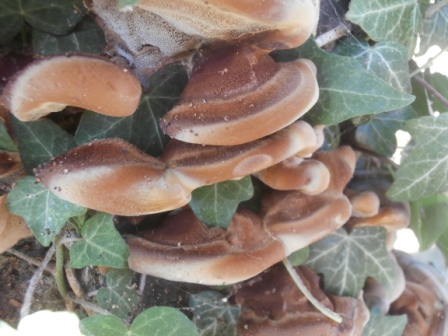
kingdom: Fungi
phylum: Basidiomycota
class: Agaricomycetes
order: Hymenochaetales
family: Hymenochaetaceae
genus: Inonotus
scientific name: Inonotus cuticularis
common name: kroghåret spejlporesvamp
